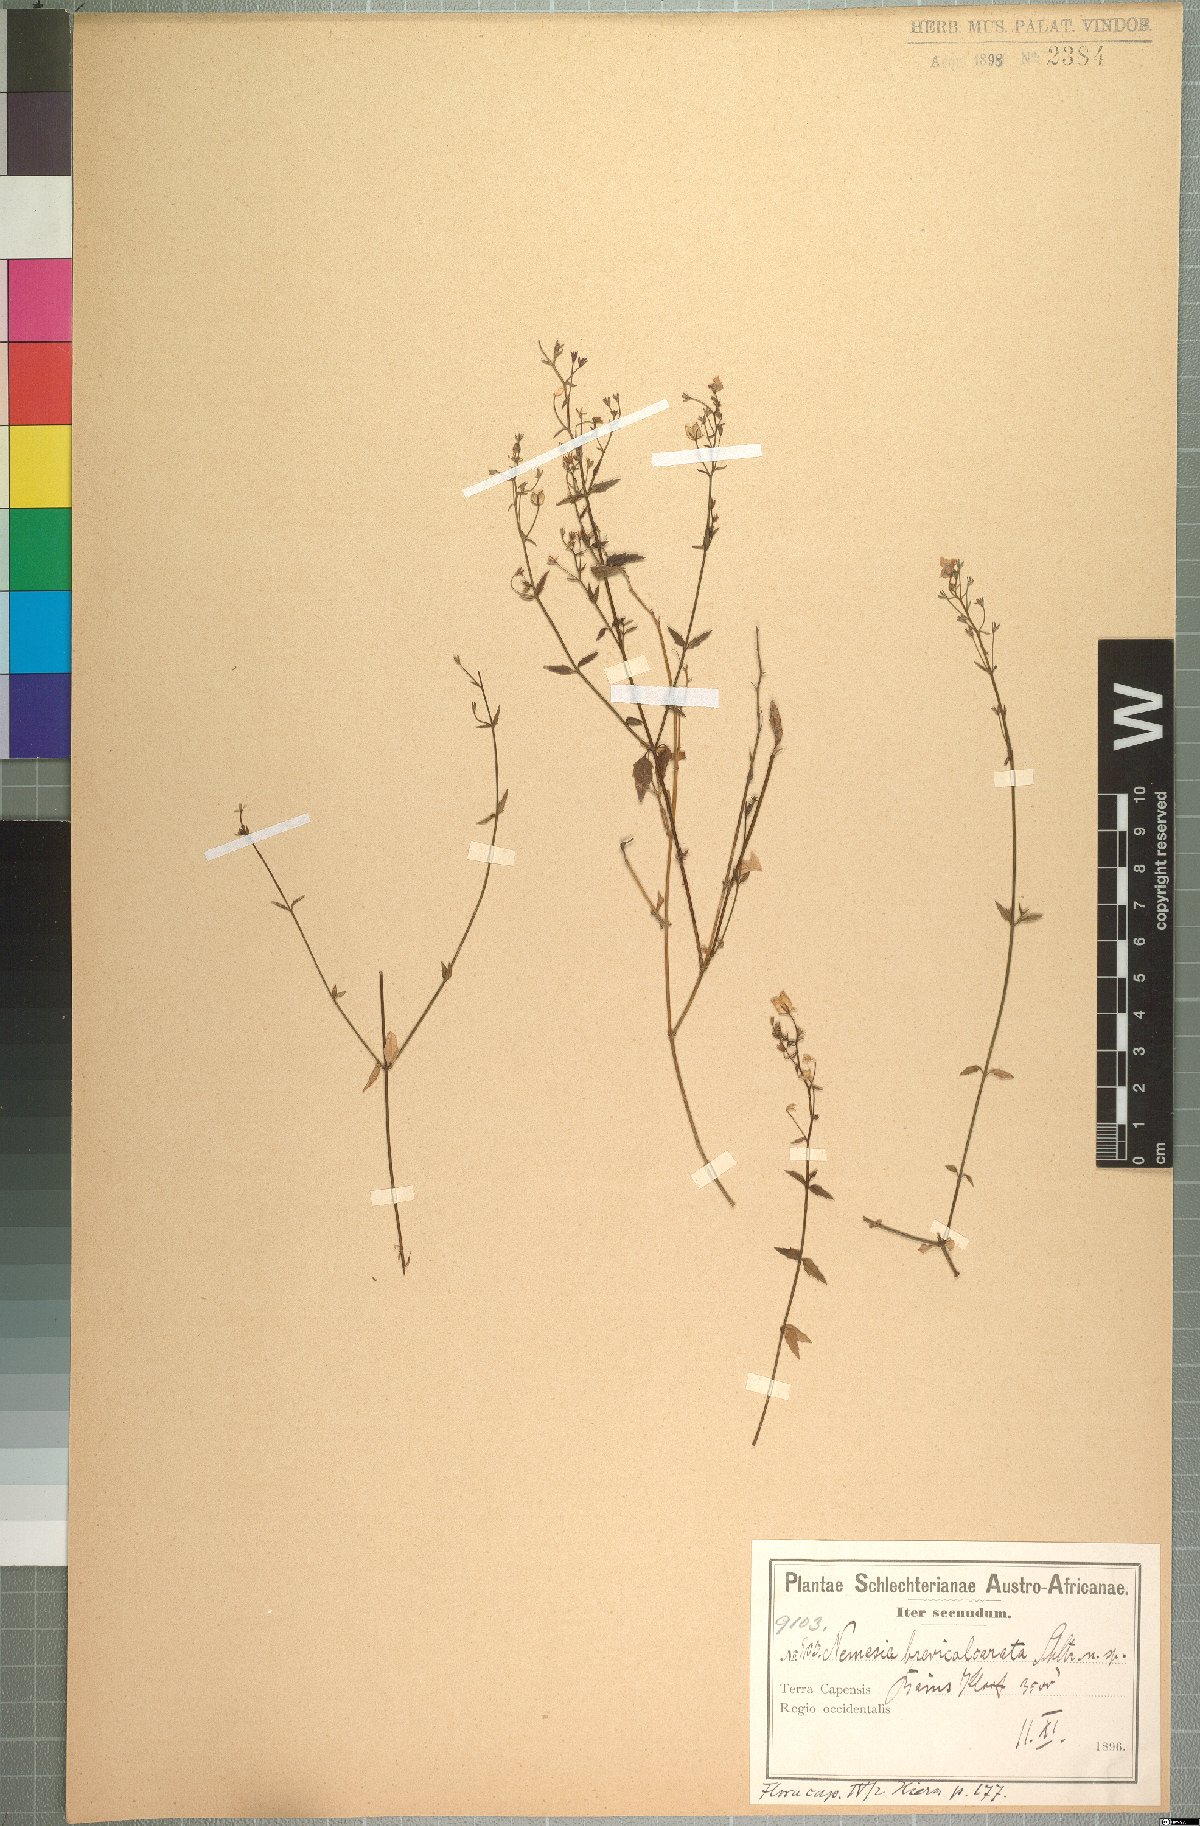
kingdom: Plantae
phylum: Tracheophyta
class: Magnoliopsida
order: Lamiales
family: Scrophulariaceae
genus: Nemesia
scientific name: Nemesia brevicalcarata
